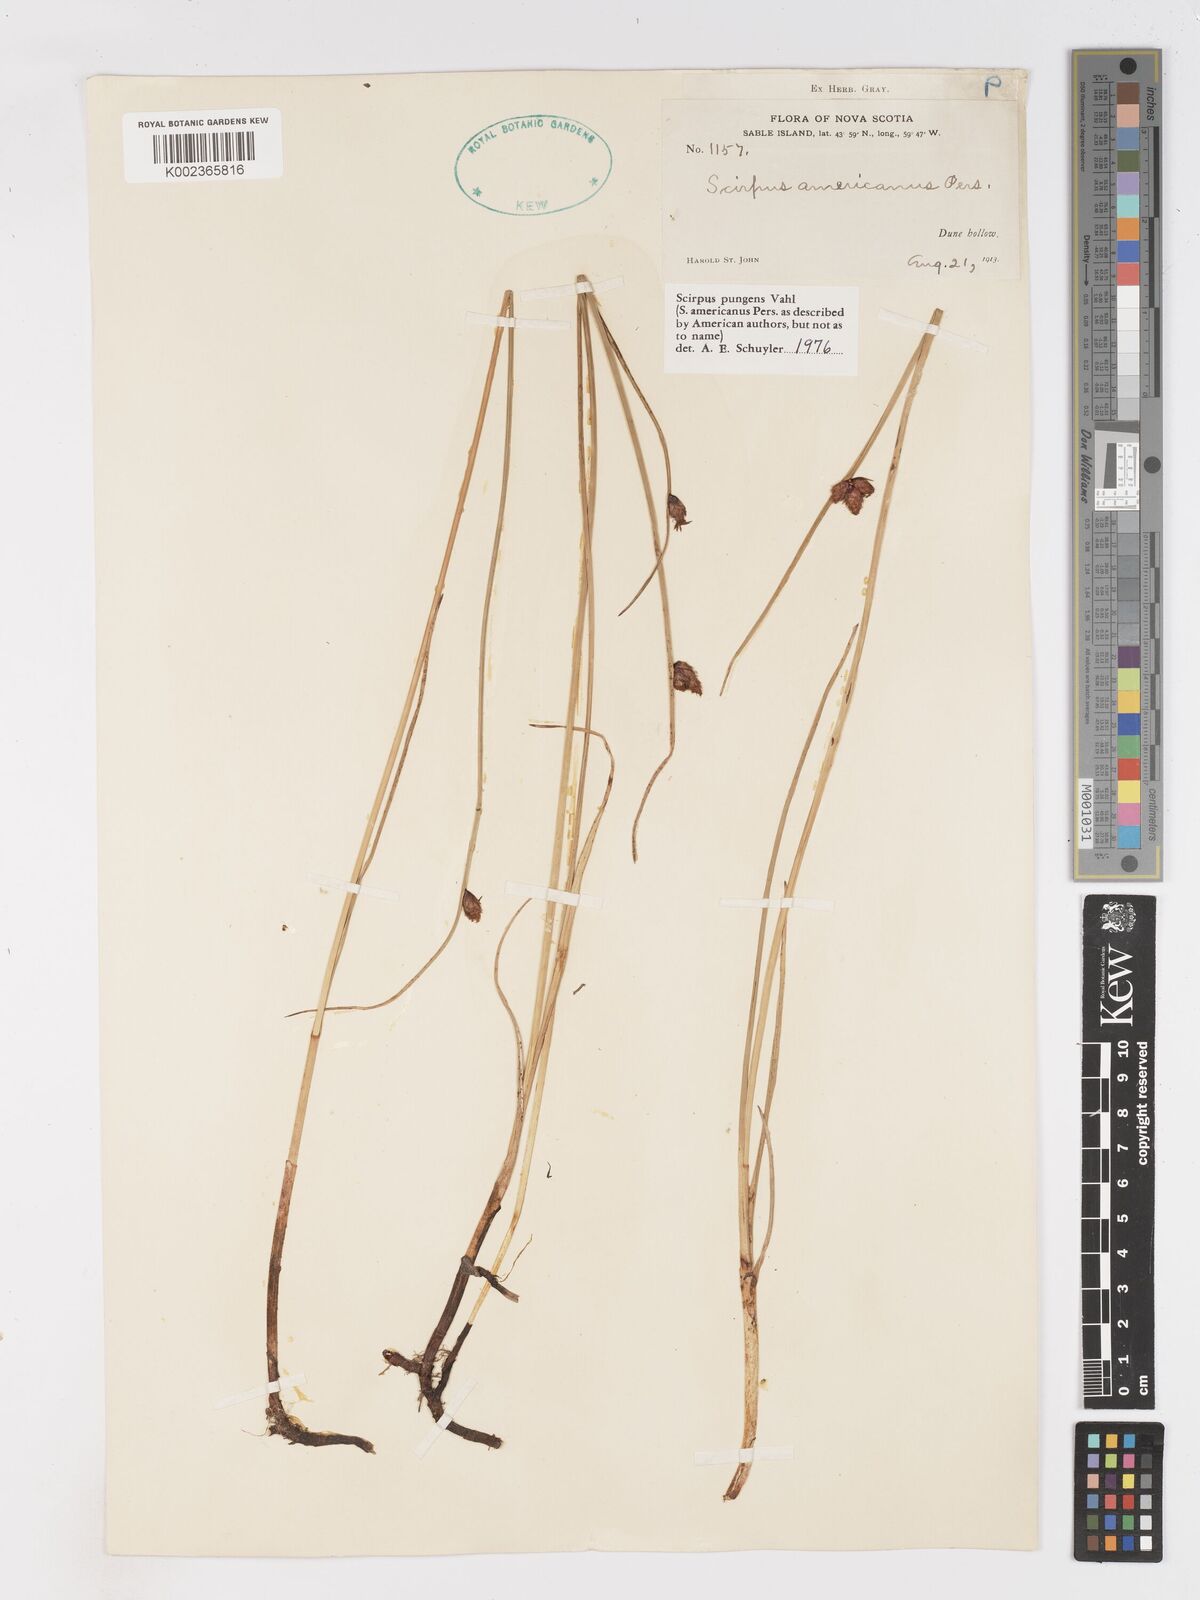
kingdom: Plantae
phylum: Tracheophyta
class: Liliopsida
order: Poales
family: Cyperaceae
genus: Schoenoplectus
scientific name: Schoenoplectus pungens
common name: Sharp club-rush
